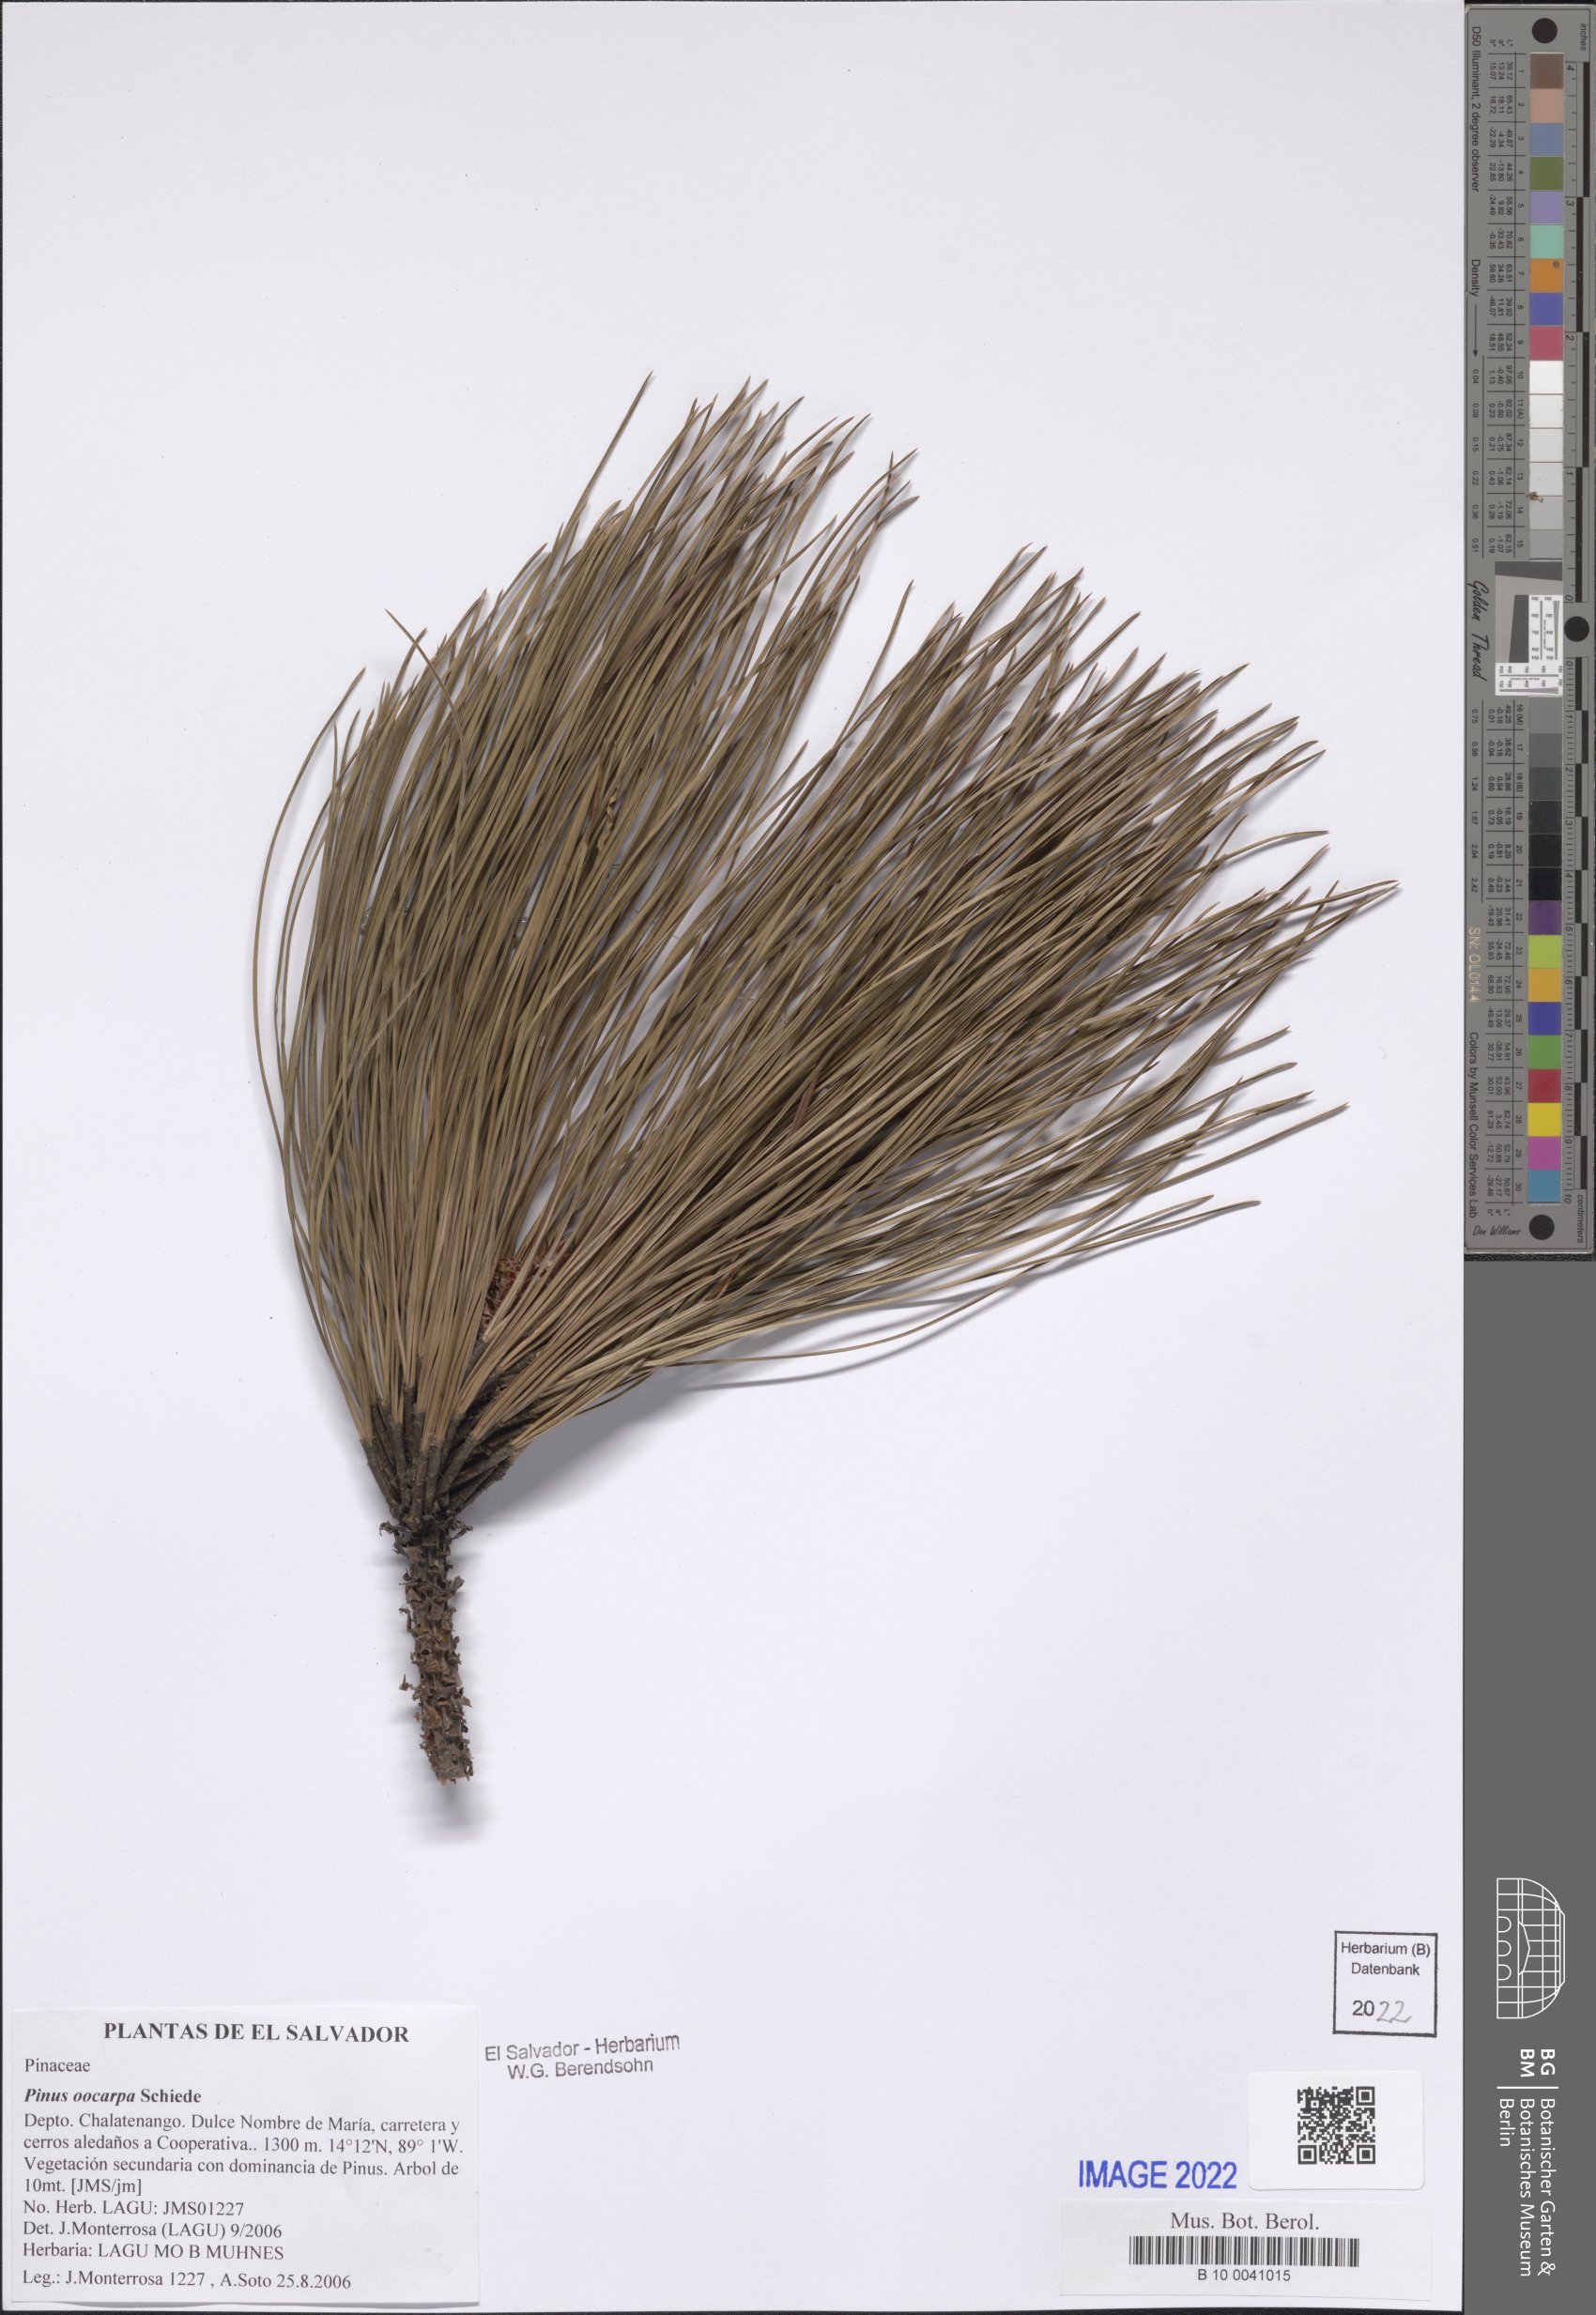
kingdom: Plantae
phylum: Tracheophyta
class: Pinopsida
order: Pinales
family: Pinaceae
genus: Pinus
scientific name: Pinus oocarpa
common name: Egg-cone pine
